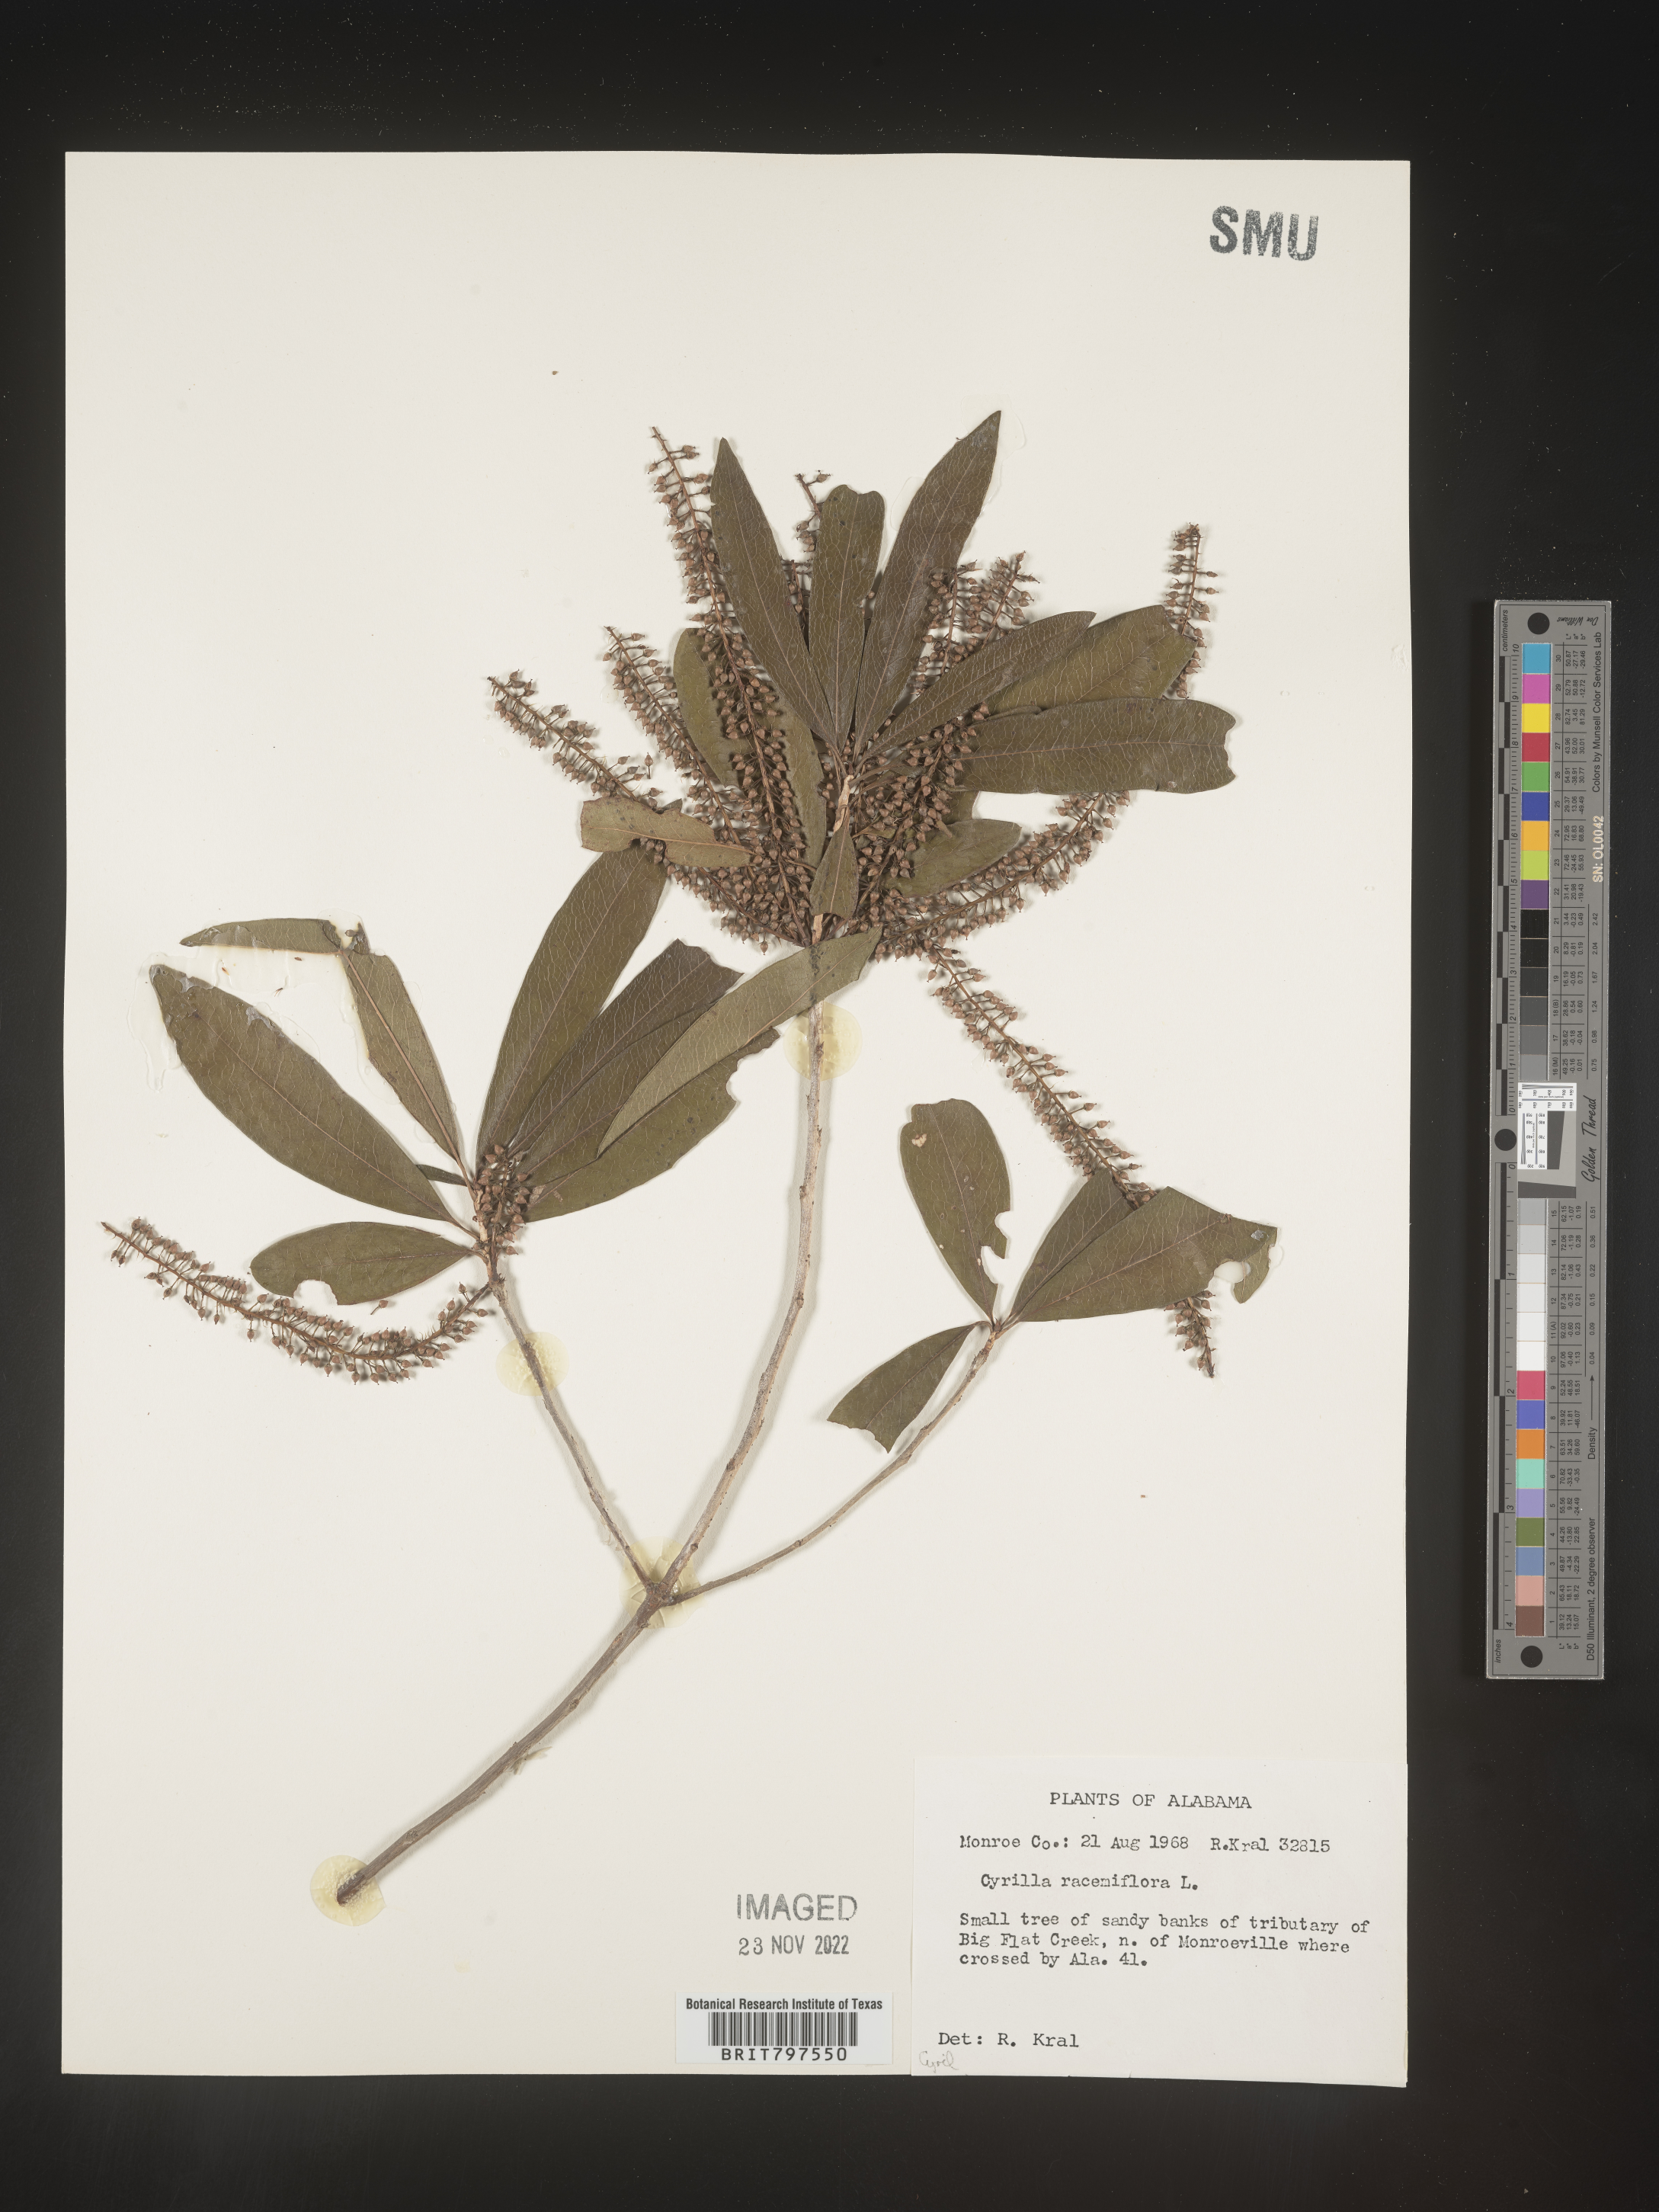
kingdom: Plantae
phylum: Tracheophyta
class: Magnoliopsida
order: Ericales
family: Cyrillaceae
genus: Cyrilla
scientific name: Cyrilla racemiflora
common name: Black titi
